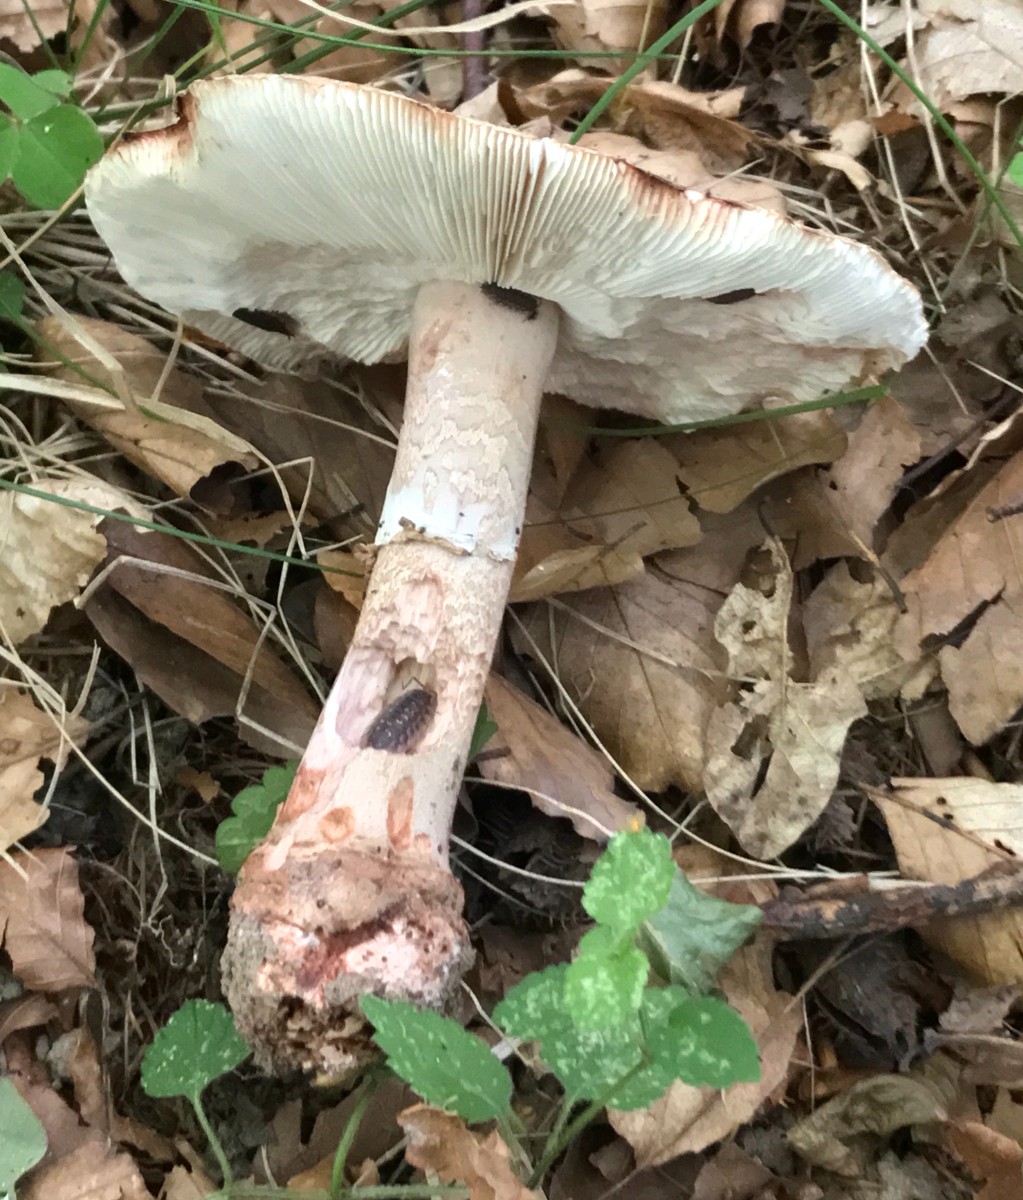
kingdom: Fungi
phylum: Basidiomycota
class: Agaricomycetes
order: Agaricales
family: Amanitaceae
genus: Amanita
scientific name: Amanita rubescens
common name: rødmende fluesvamp
